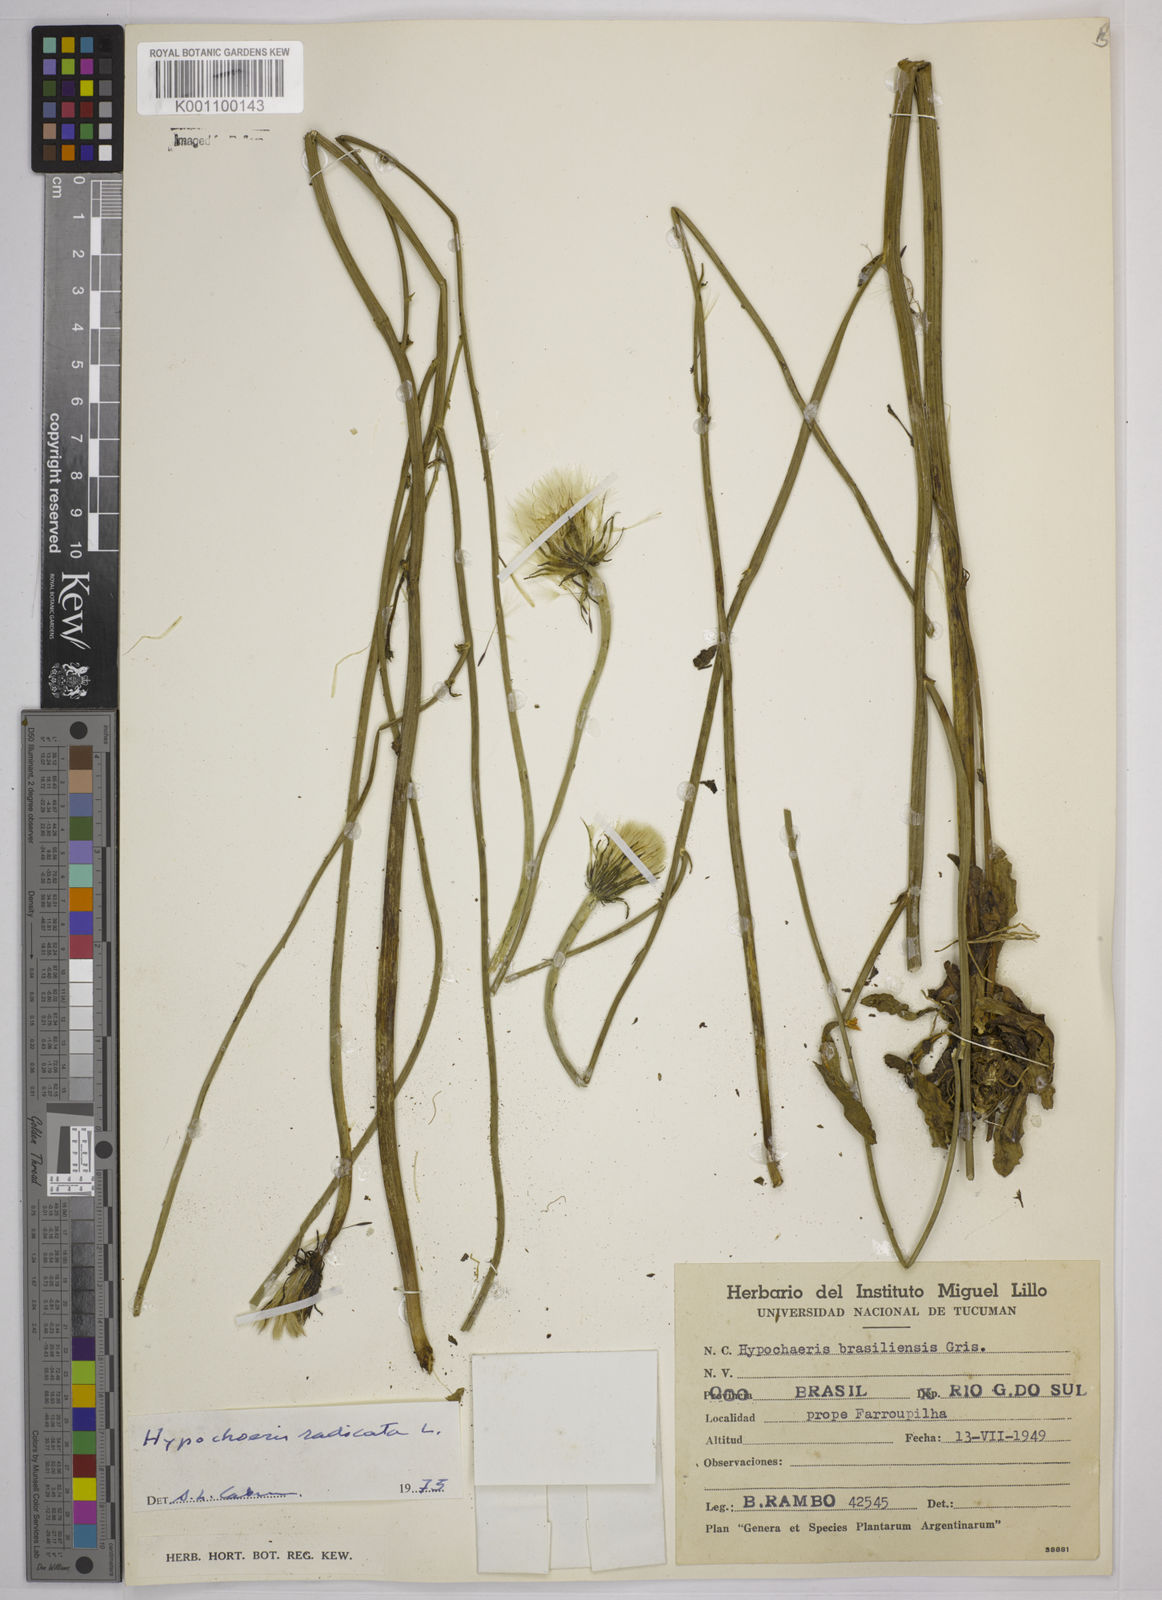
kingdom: Plantae
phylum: Tracheophyta
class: Magnoliopsida
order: Asterales
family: Asteraceae
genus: Hypochaeris
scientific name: Hypochaeris
